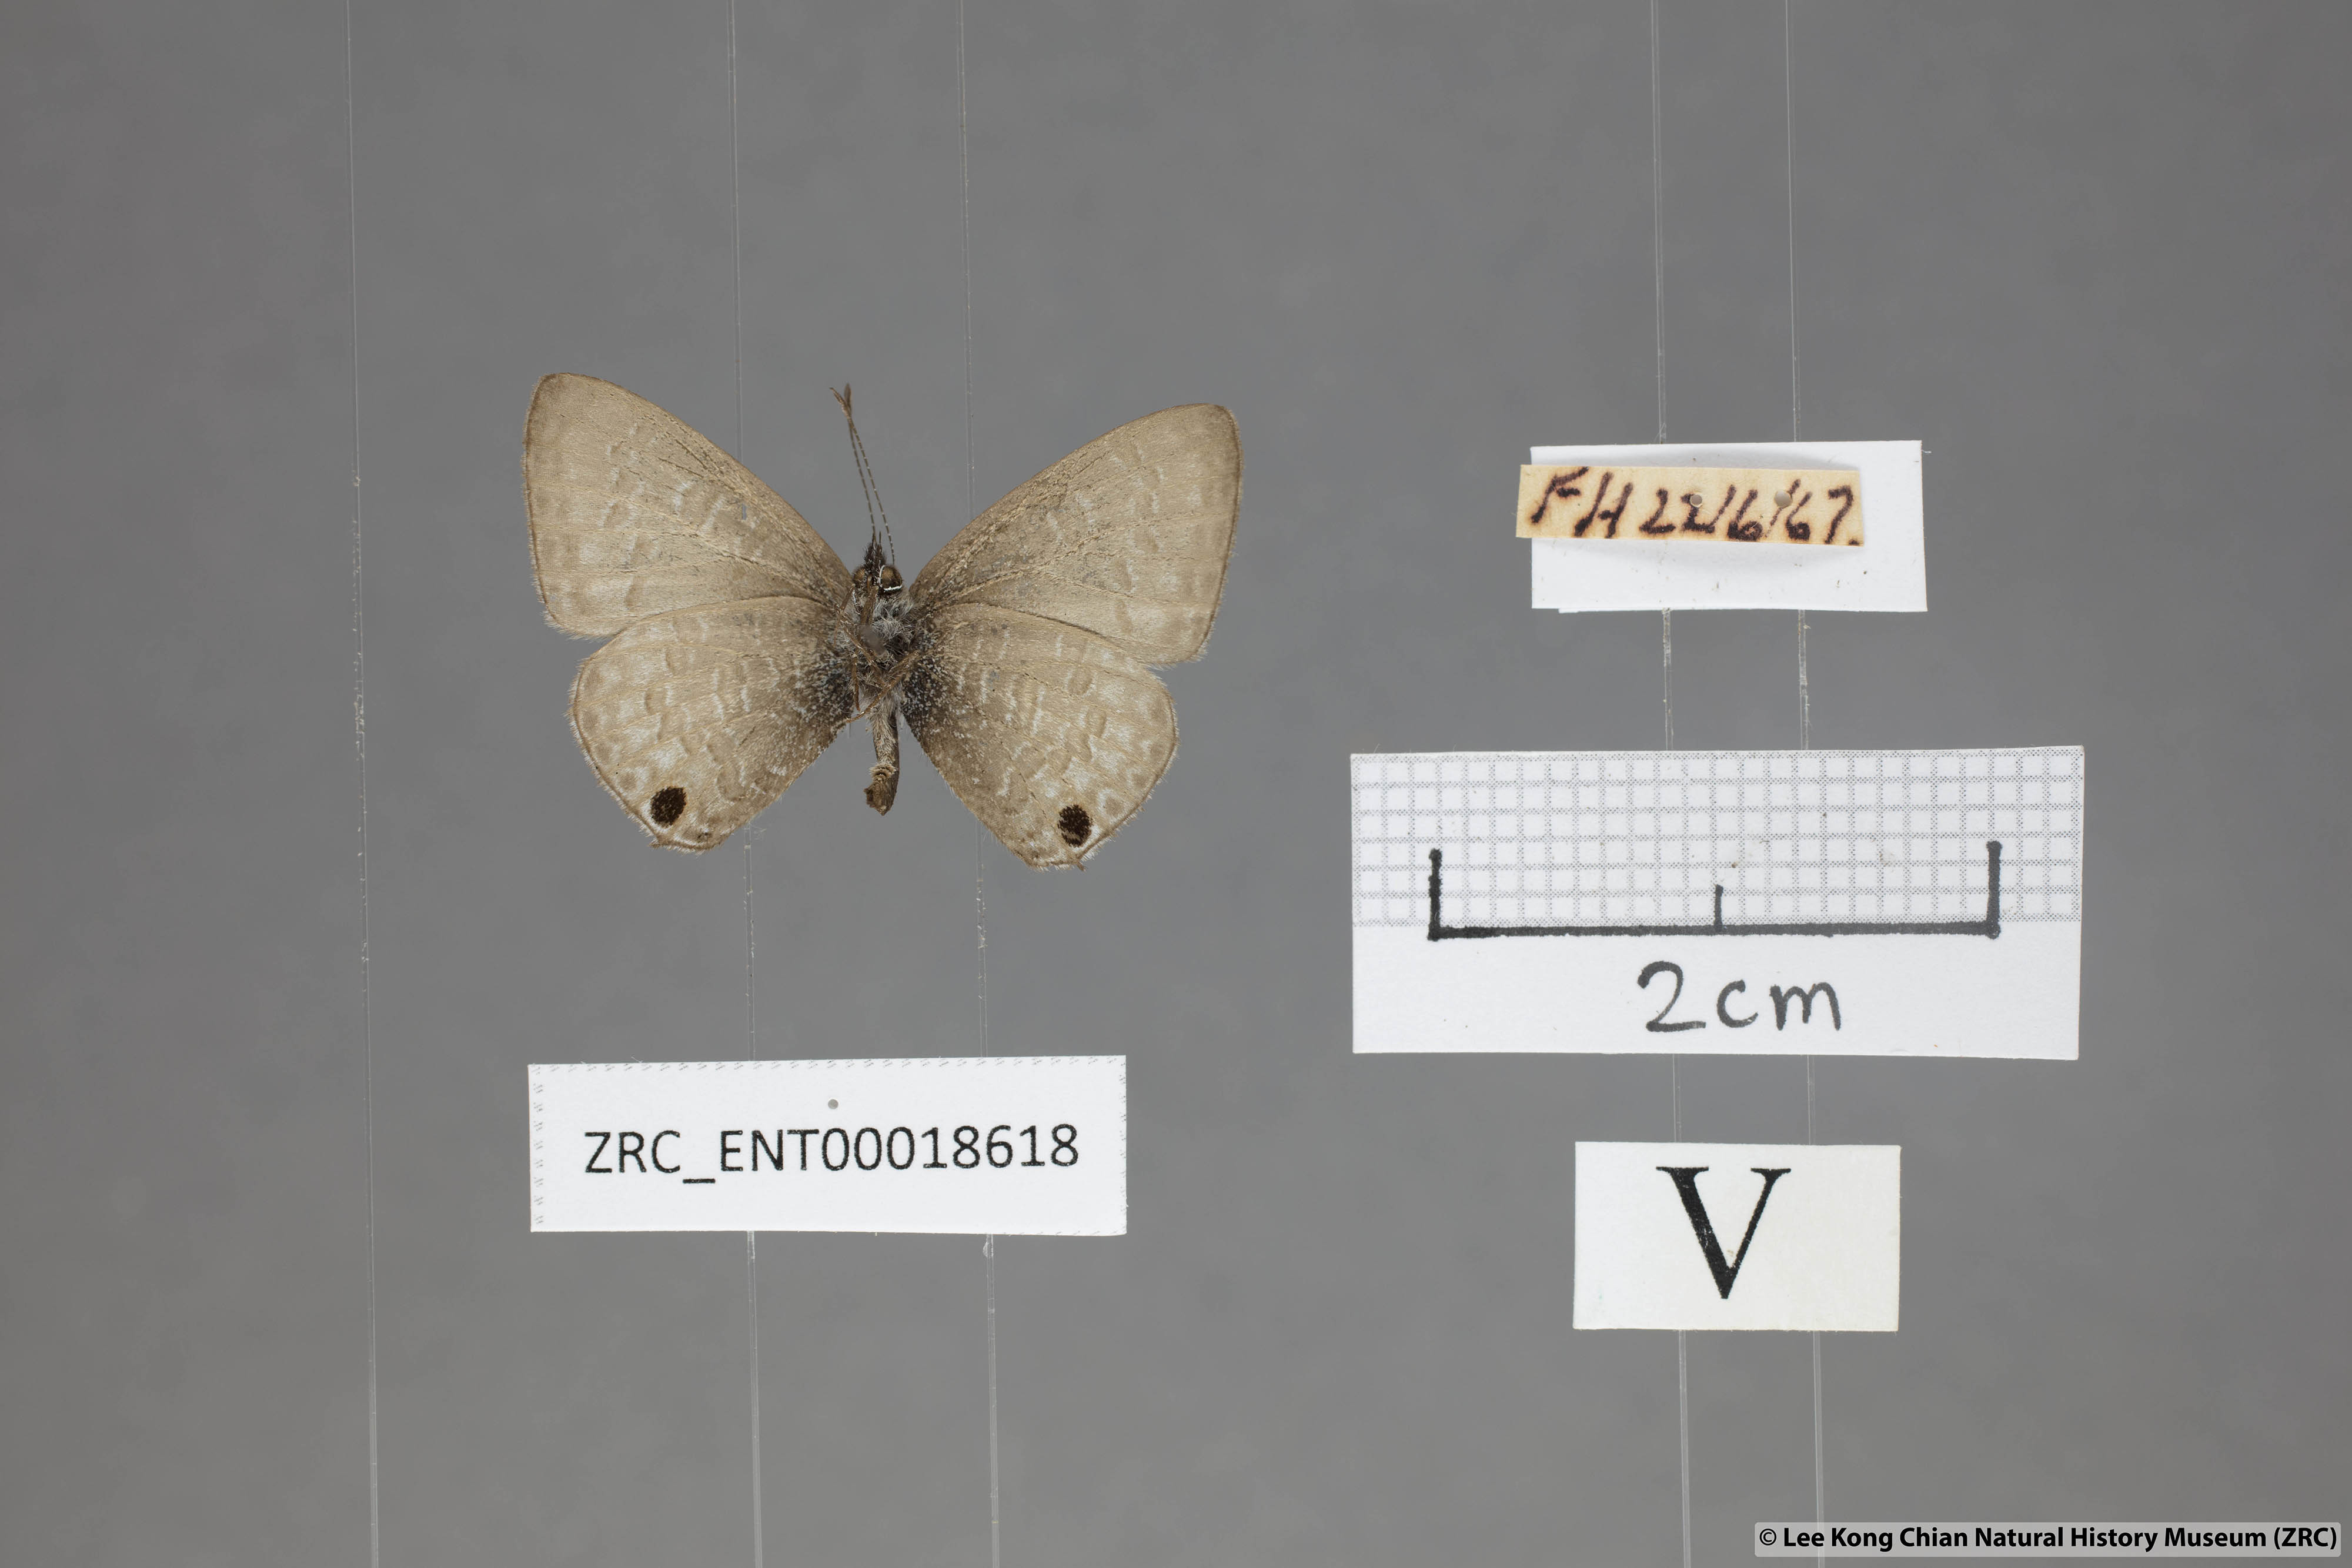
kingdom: Animalia
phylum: Arthropoda
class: Insecta
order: Lepidoptera
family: Lycaenidae
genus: Prosotas
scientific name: Prosotas nelides
